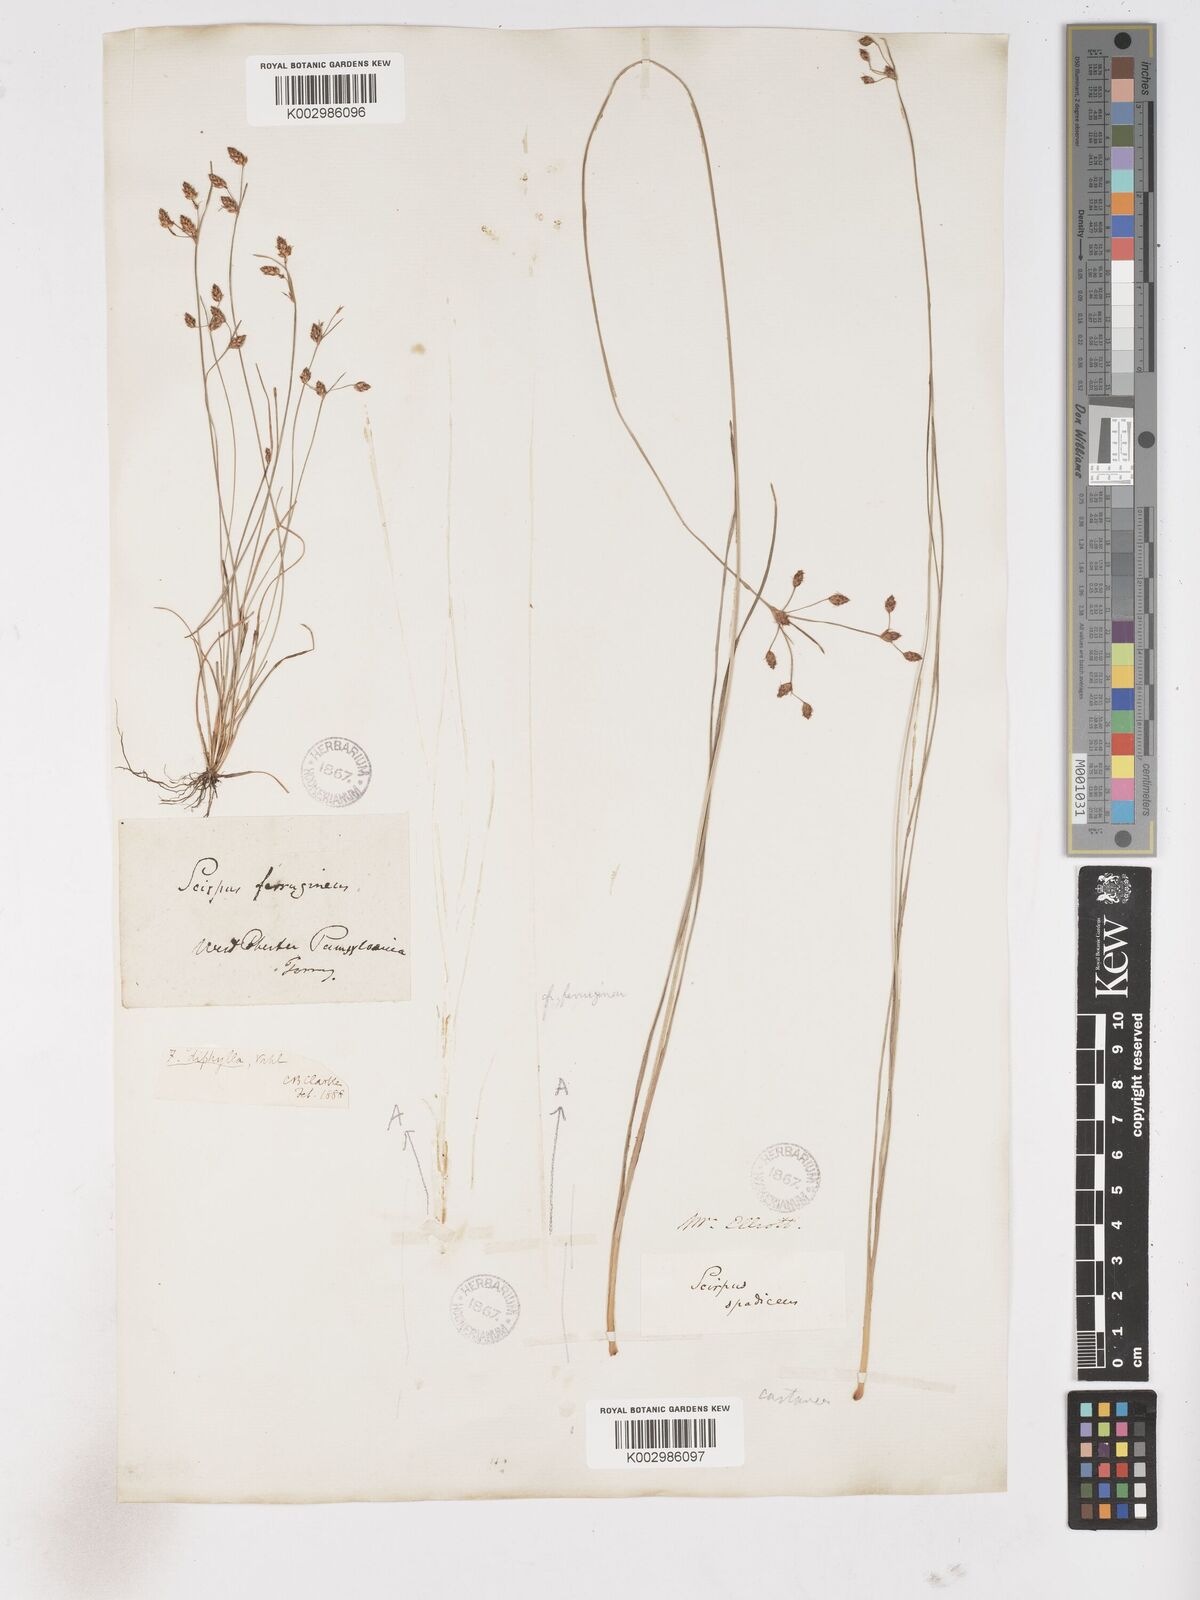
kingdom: Plantae
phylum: Tracheophyta
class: Liliopsida
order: Poales
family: Cyperaceae
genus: Fimbristylis
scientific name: Fimbristylis dichotoma
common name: Forked fimbry
